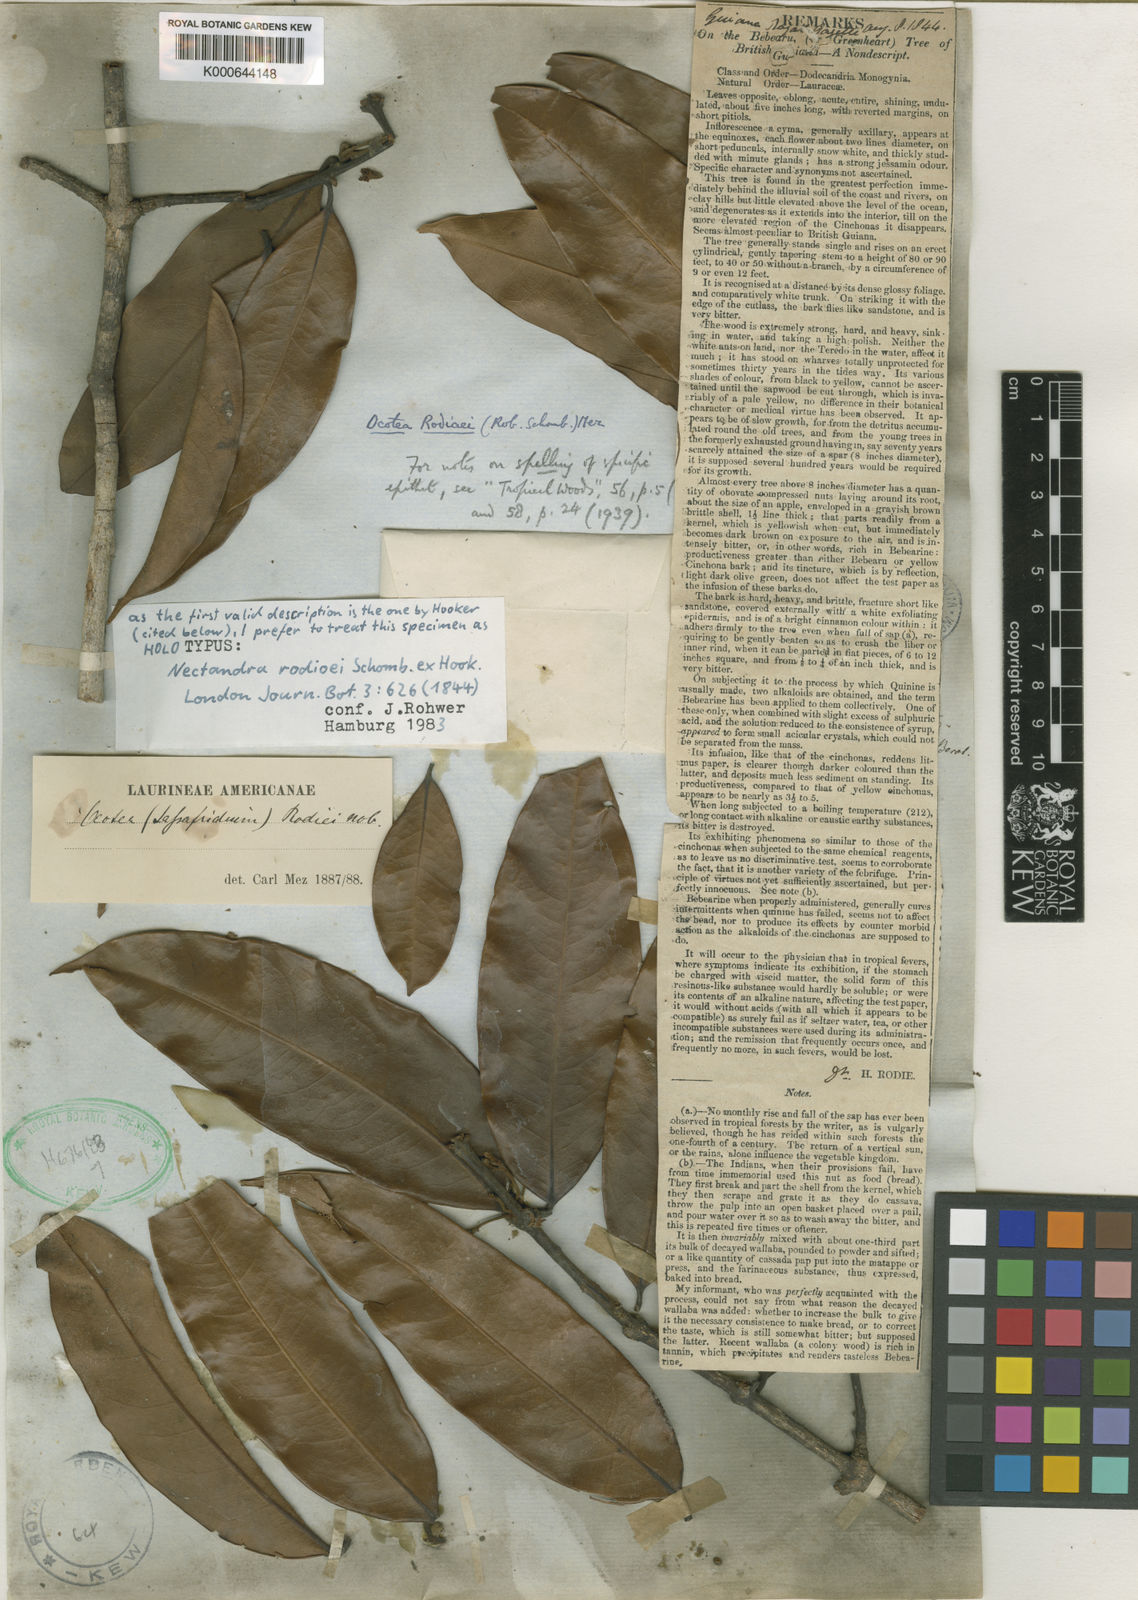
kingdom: Plantae
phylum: Tracheophyta
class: Magnoliopsida
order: Laurales
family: Lauraceae
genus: Chlorocardium
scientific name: Chlorocardium rodiei
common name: Cogwood
